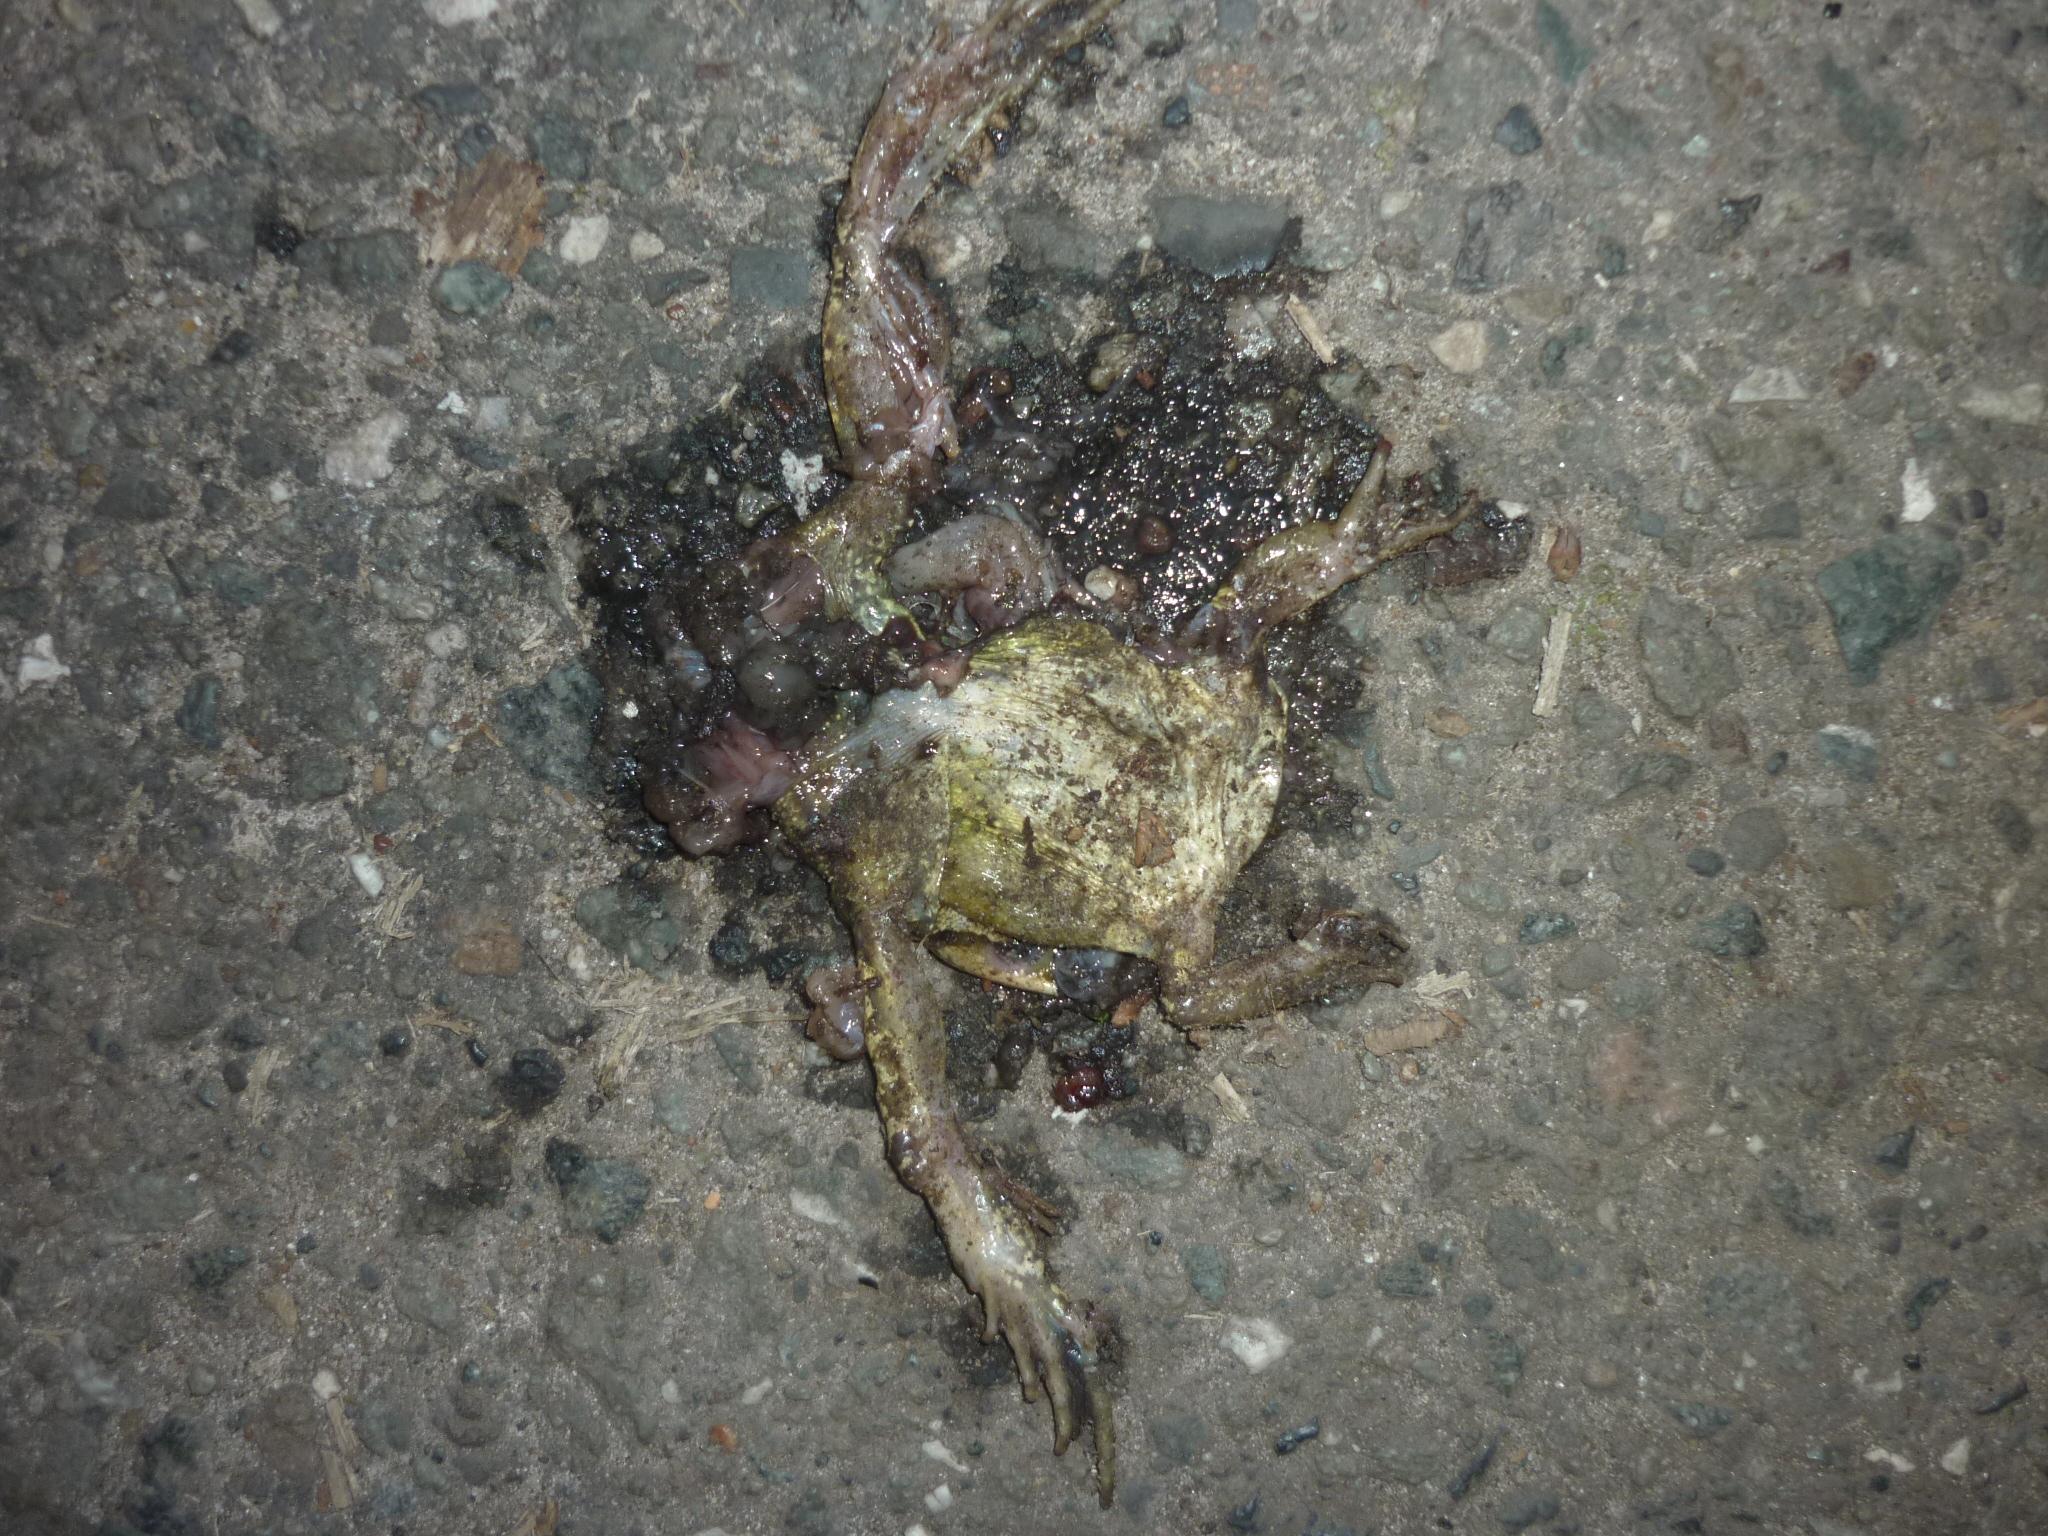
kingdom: Animalia
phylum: Chordata
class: Amphibia
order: Anura
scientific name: Anura
